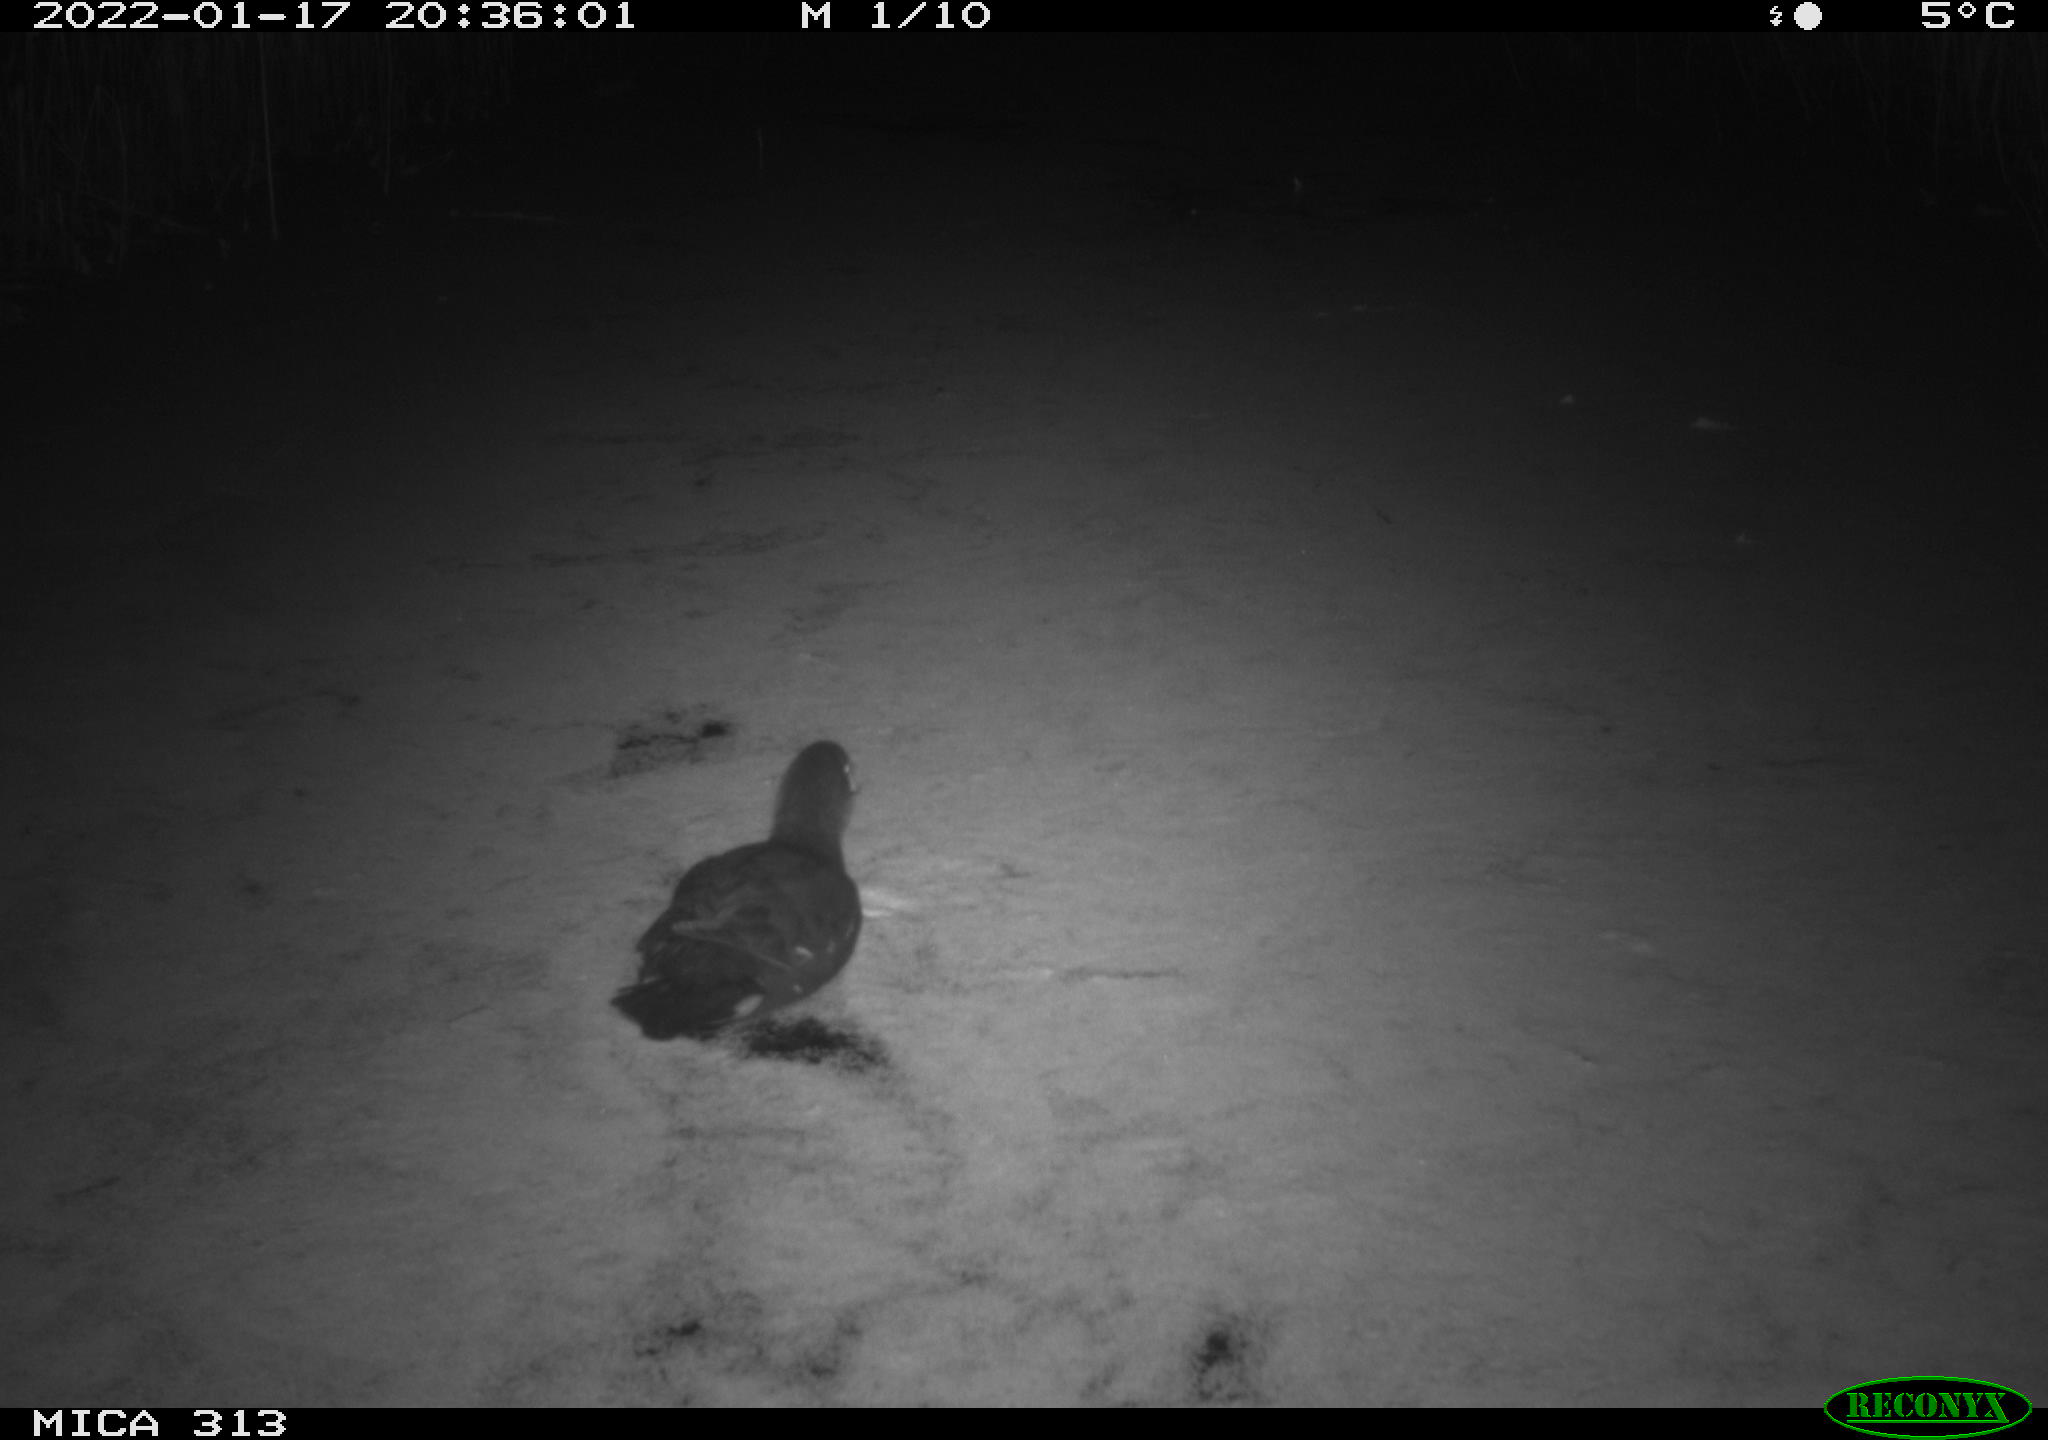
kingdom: Animalia
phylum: Chordata
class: Aves
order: Gruiformes
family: Rallidae
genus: Gallinula
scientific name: Gallinula chloropus
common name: Common moorhen
